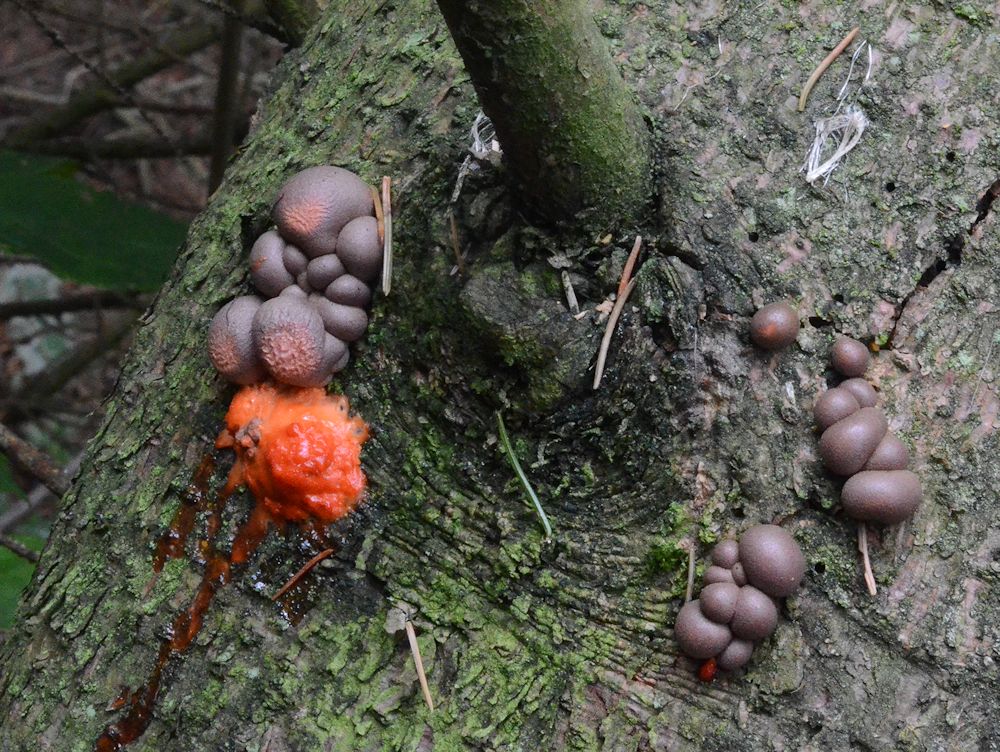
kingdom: Protozoa
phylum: Mycetozoa
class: Myxomycetes
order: Cribrariales
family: Tubiferaceae
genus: Lycogala
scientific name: Lycogala epidendrum
